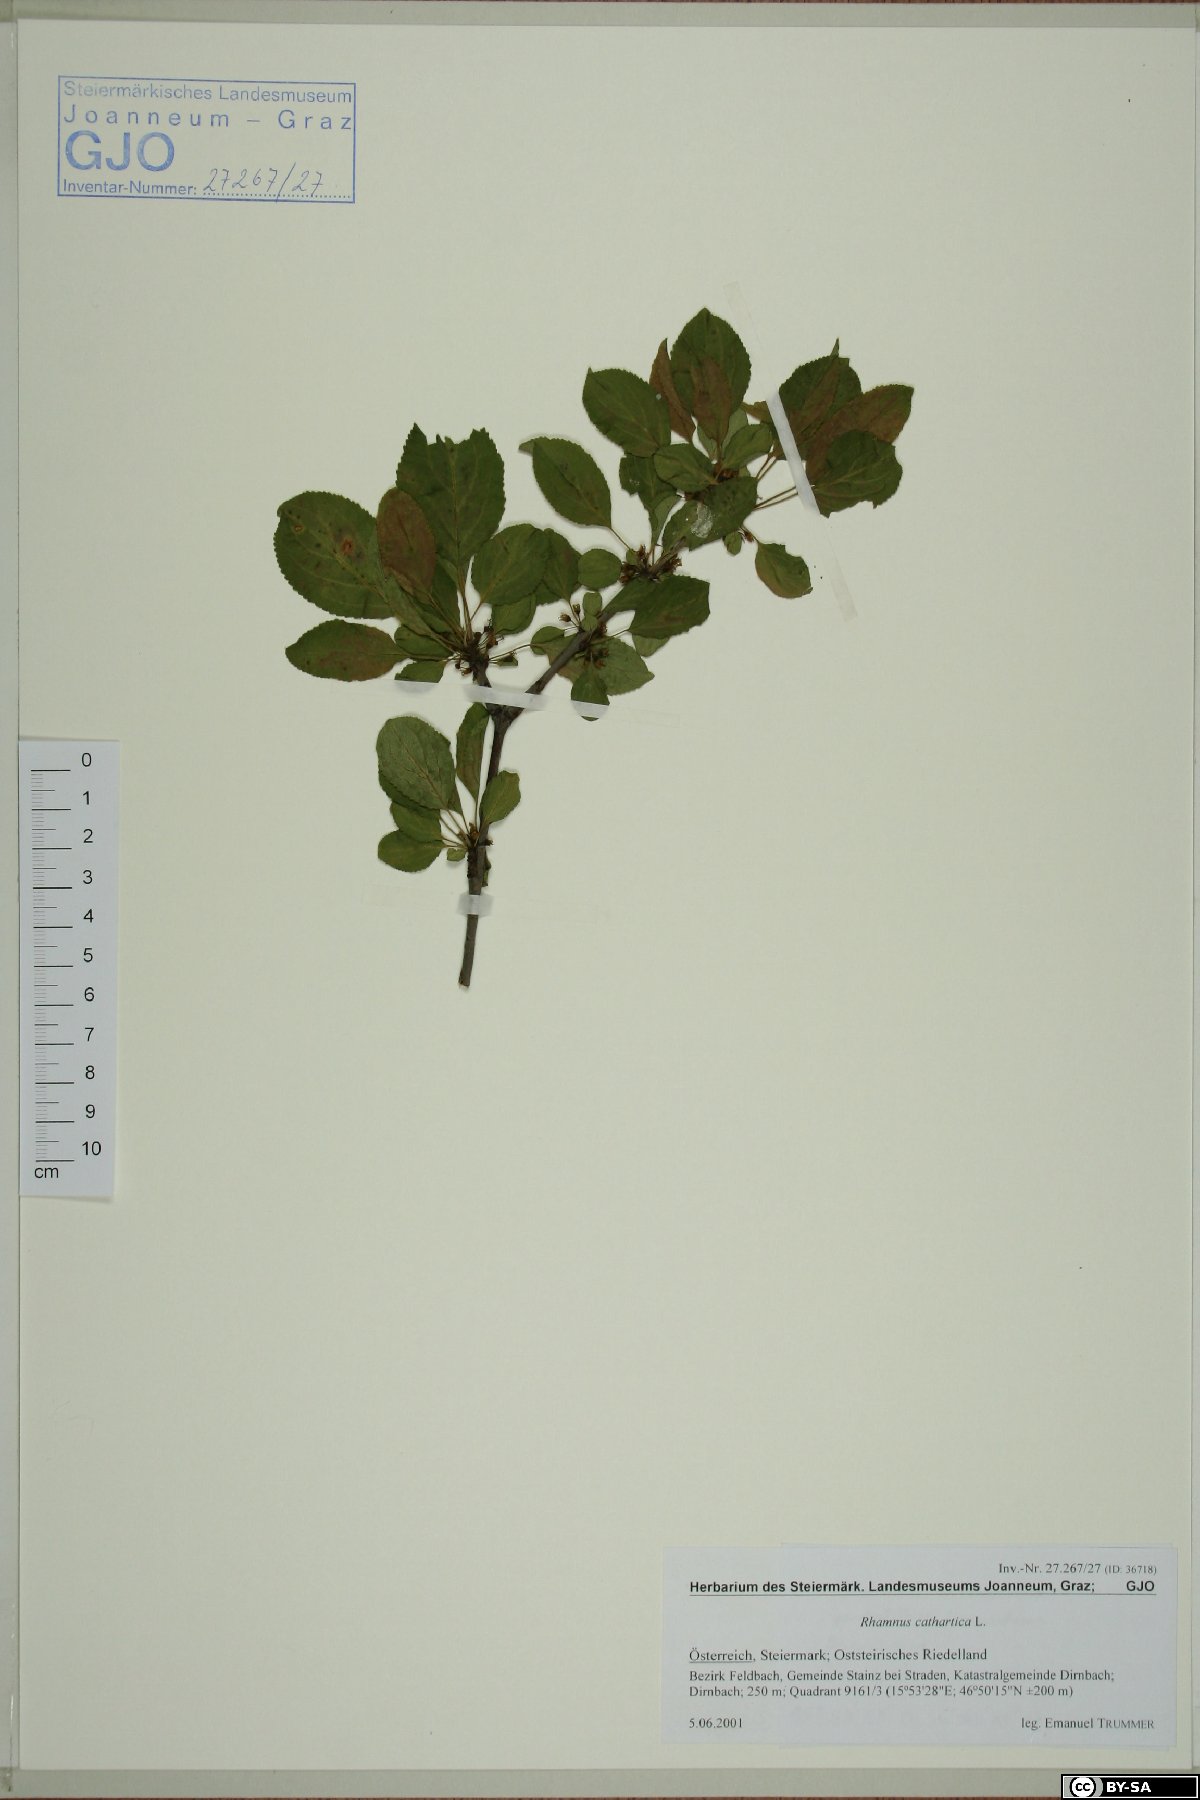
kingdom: Plantae
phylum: Tracheophyta
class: Magnoliopsida
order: Rosales
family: Rhamnaceae
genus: Rhamnus
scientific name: Rhamnus cathartica
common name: Common buckthorn
